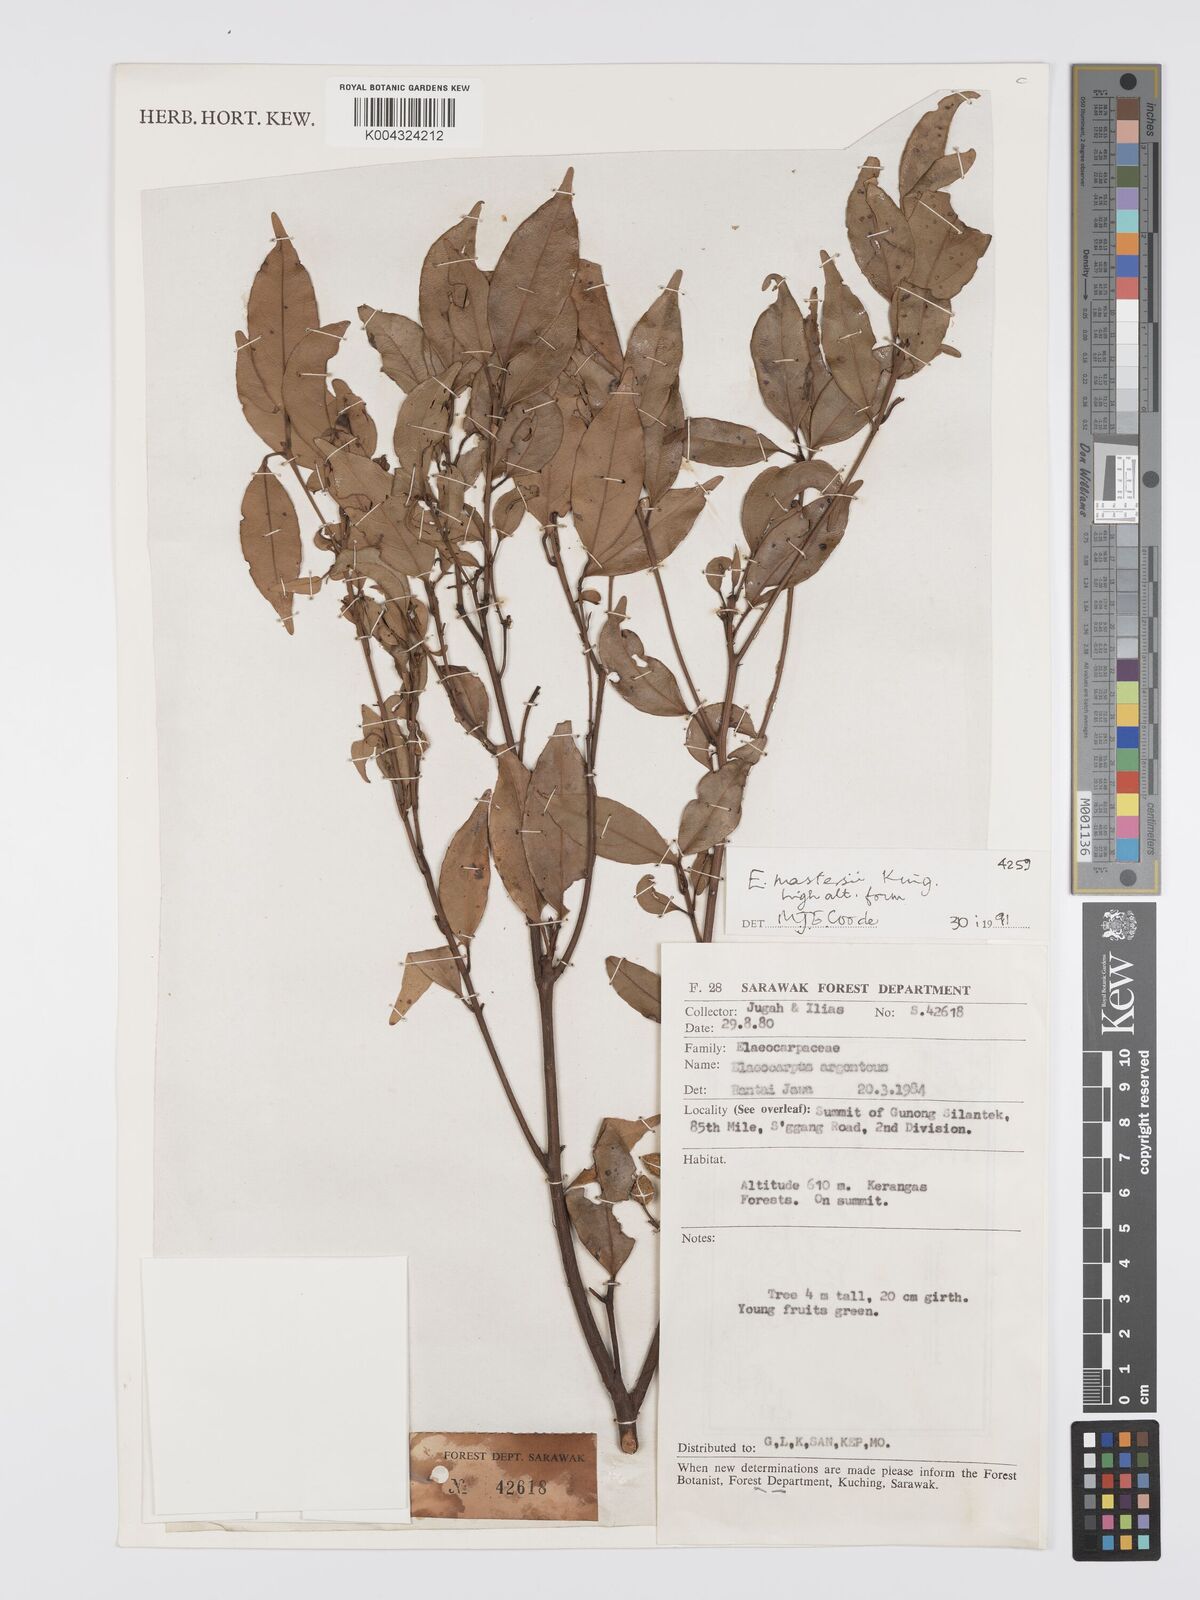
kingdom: Plantae
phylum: Tracheophyta
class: Magnoliopsida
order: Oxalidales
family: Elaeocarpaceae
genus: Elaeocarpus
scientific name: Elaeocarpus mastersii
